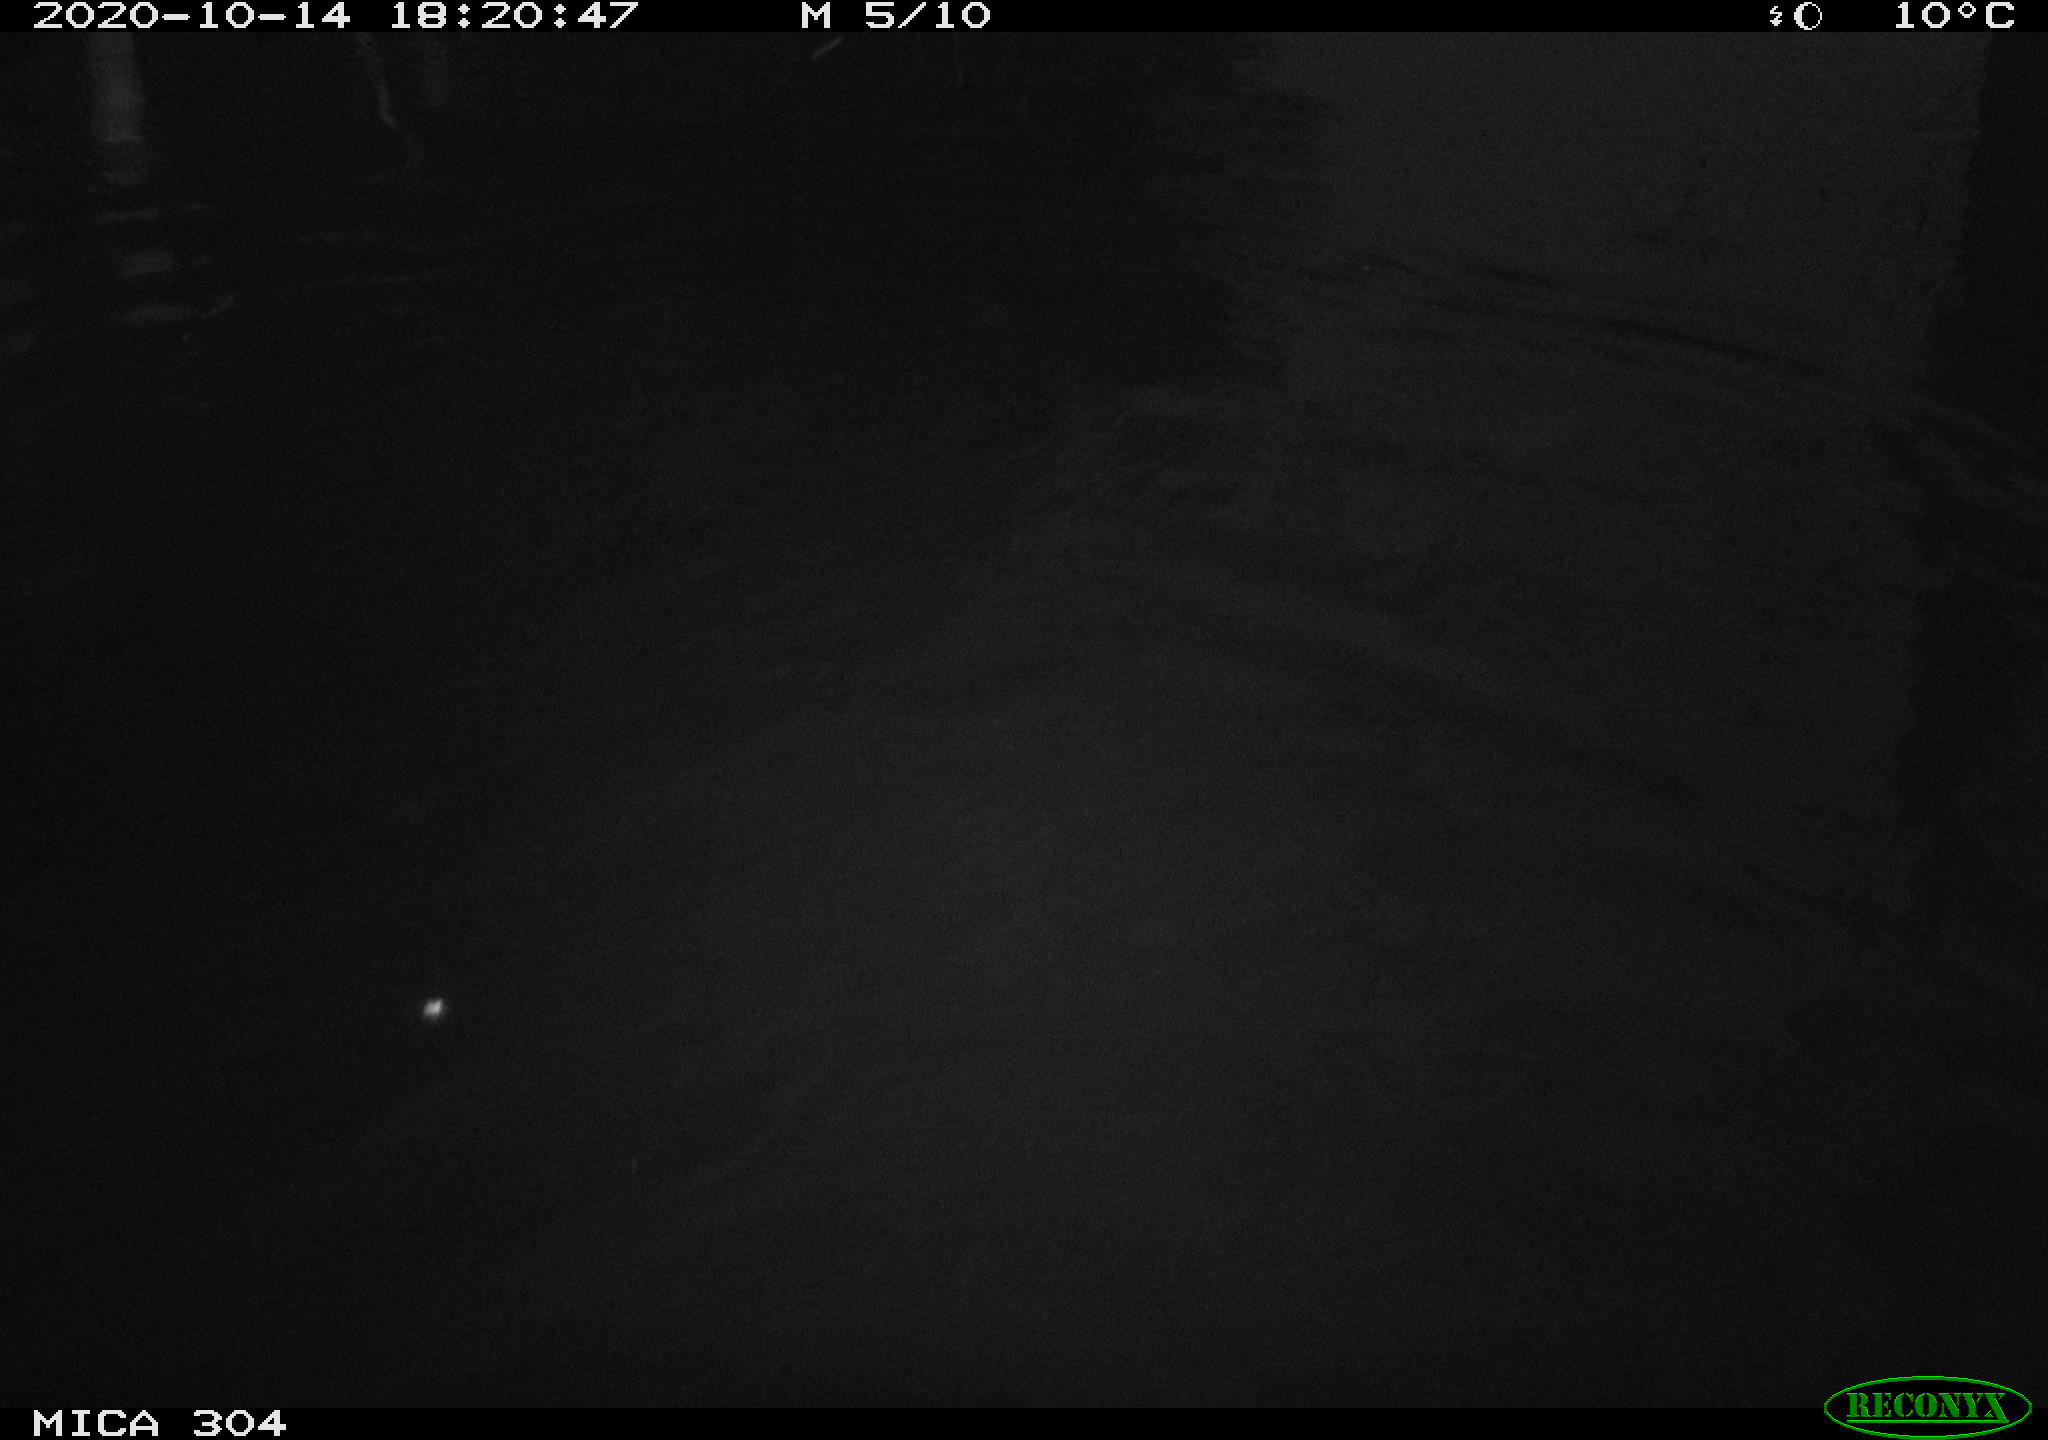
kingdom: Animalia
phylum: Chordata
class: Mammalia
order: Rodentia
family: Cricetidae
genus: Ondatra
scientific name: Ondatra zibethicus
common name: Muskrat
